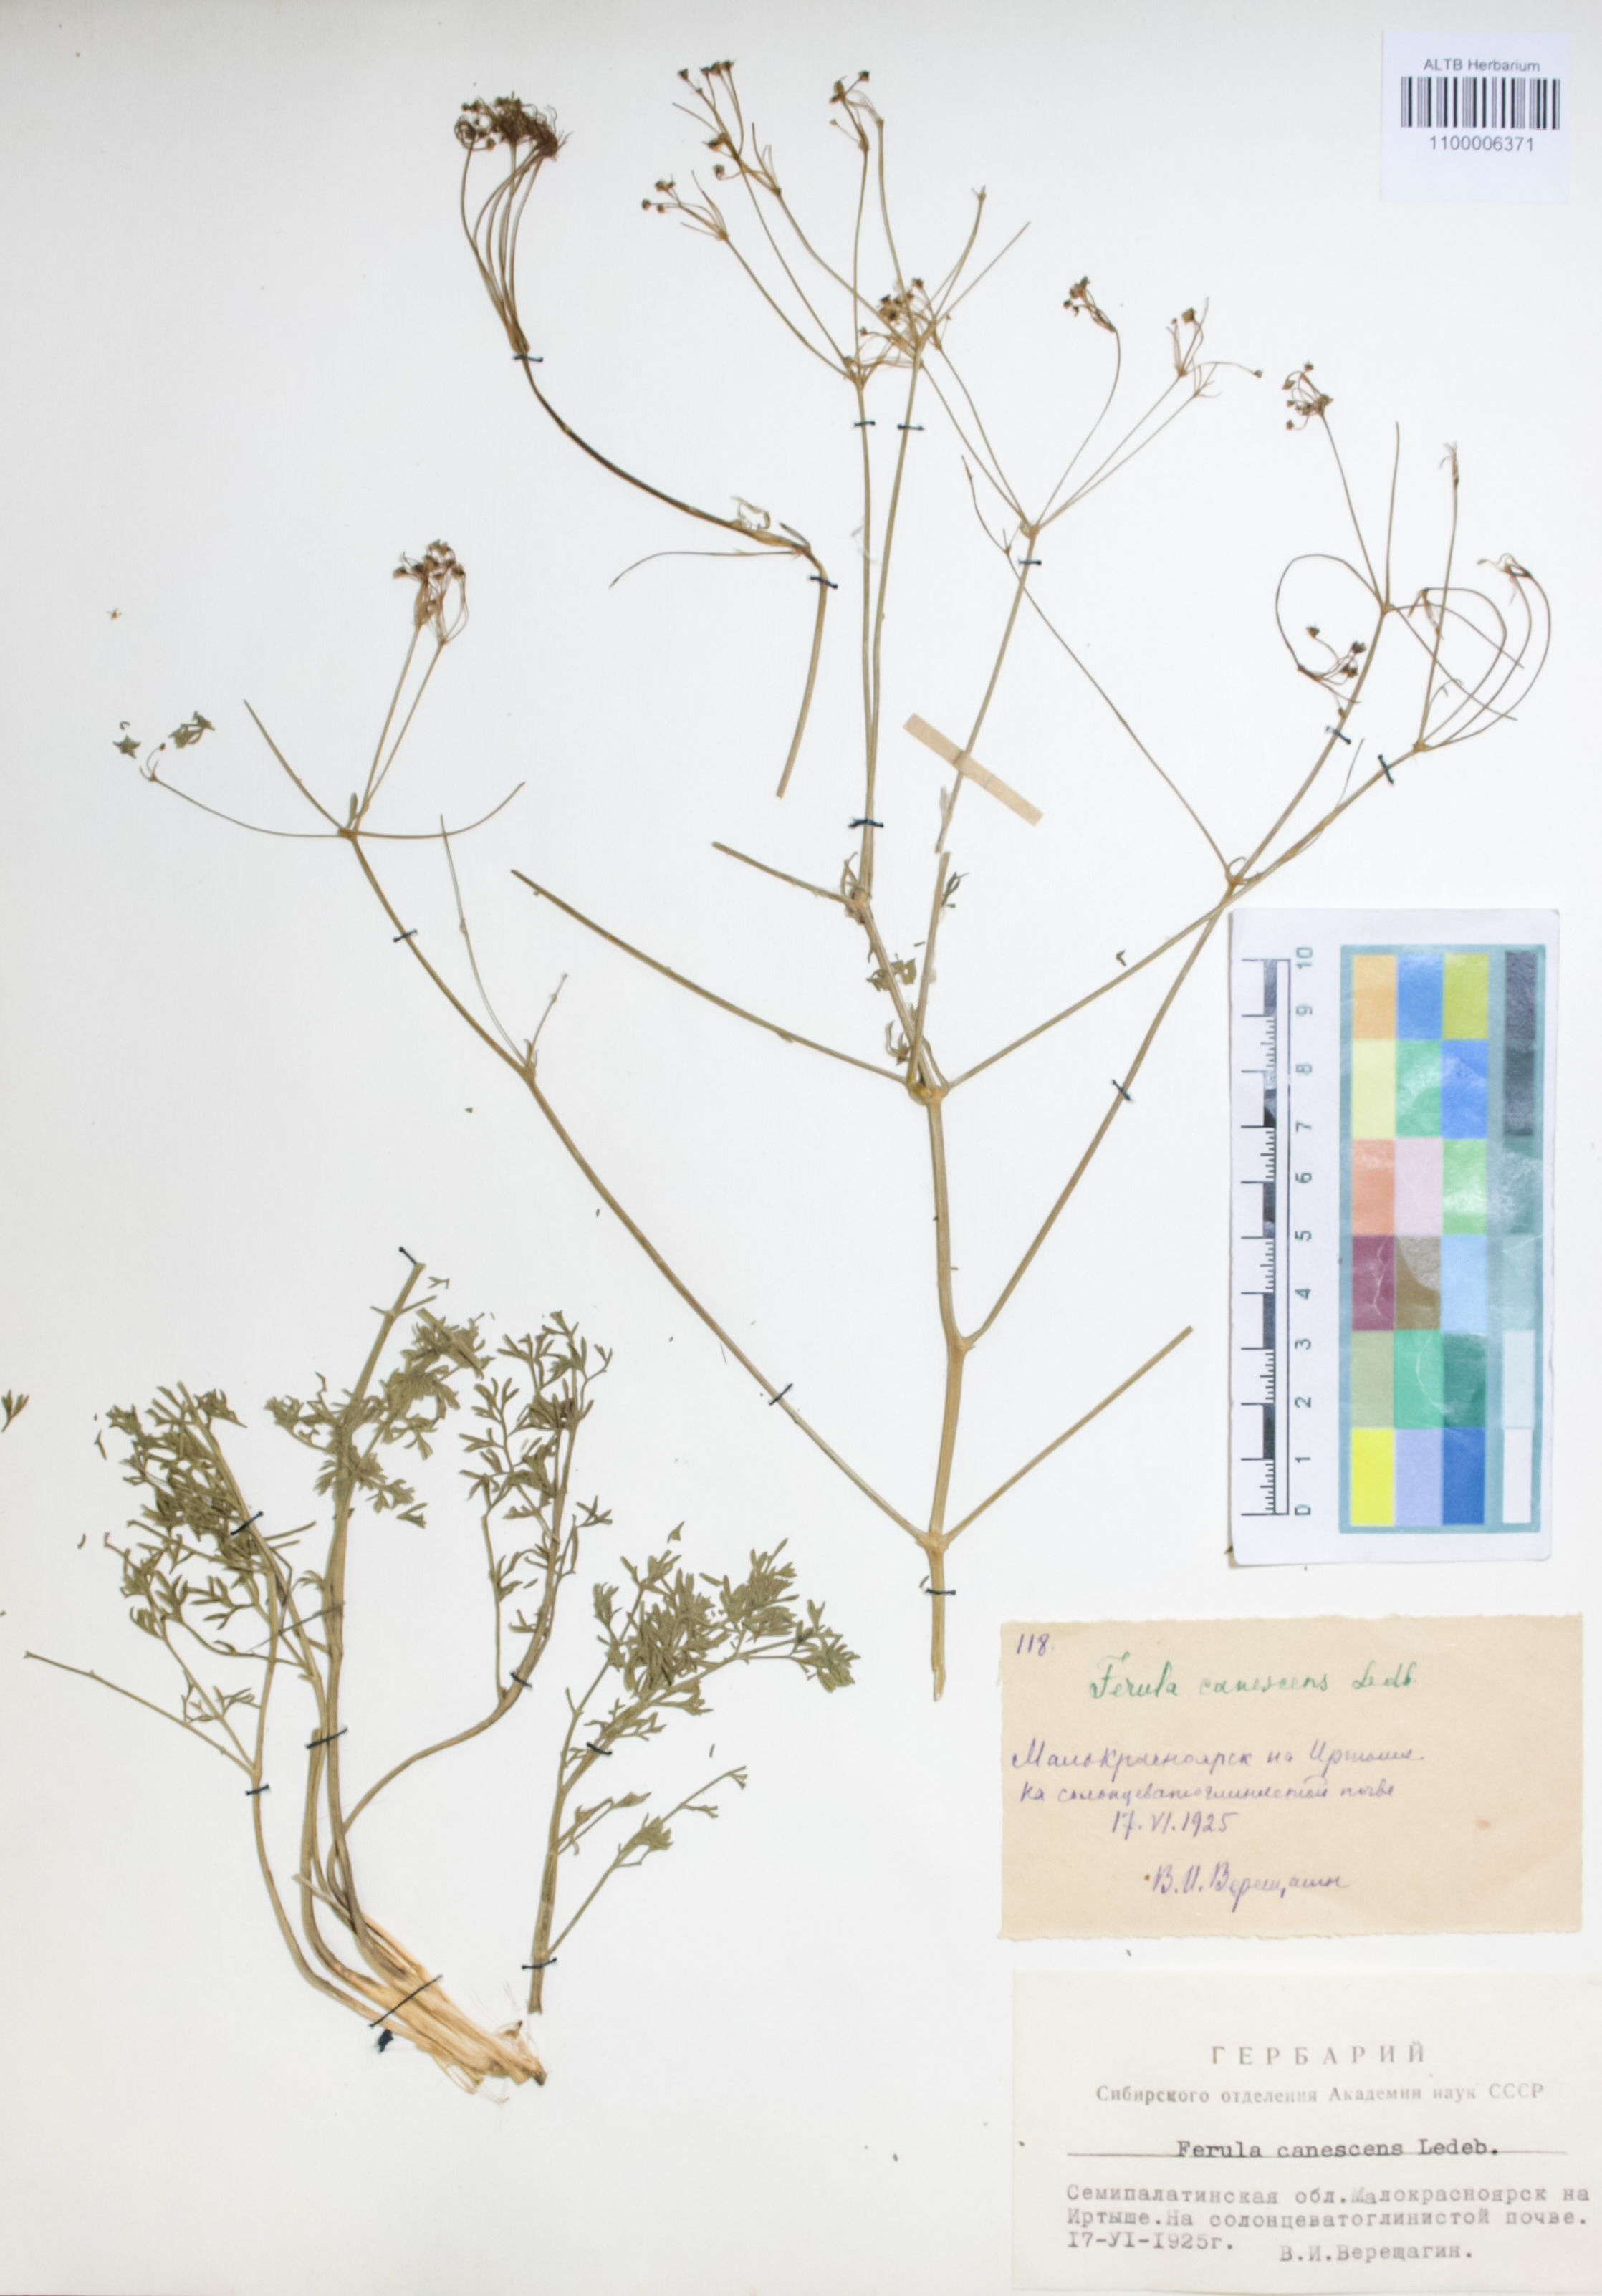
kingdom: Plantae
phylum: Tracheophyta
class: Magnoliopsida
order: Apiales
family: Apiaceae
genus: Ferula
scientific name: Ferula canescens
